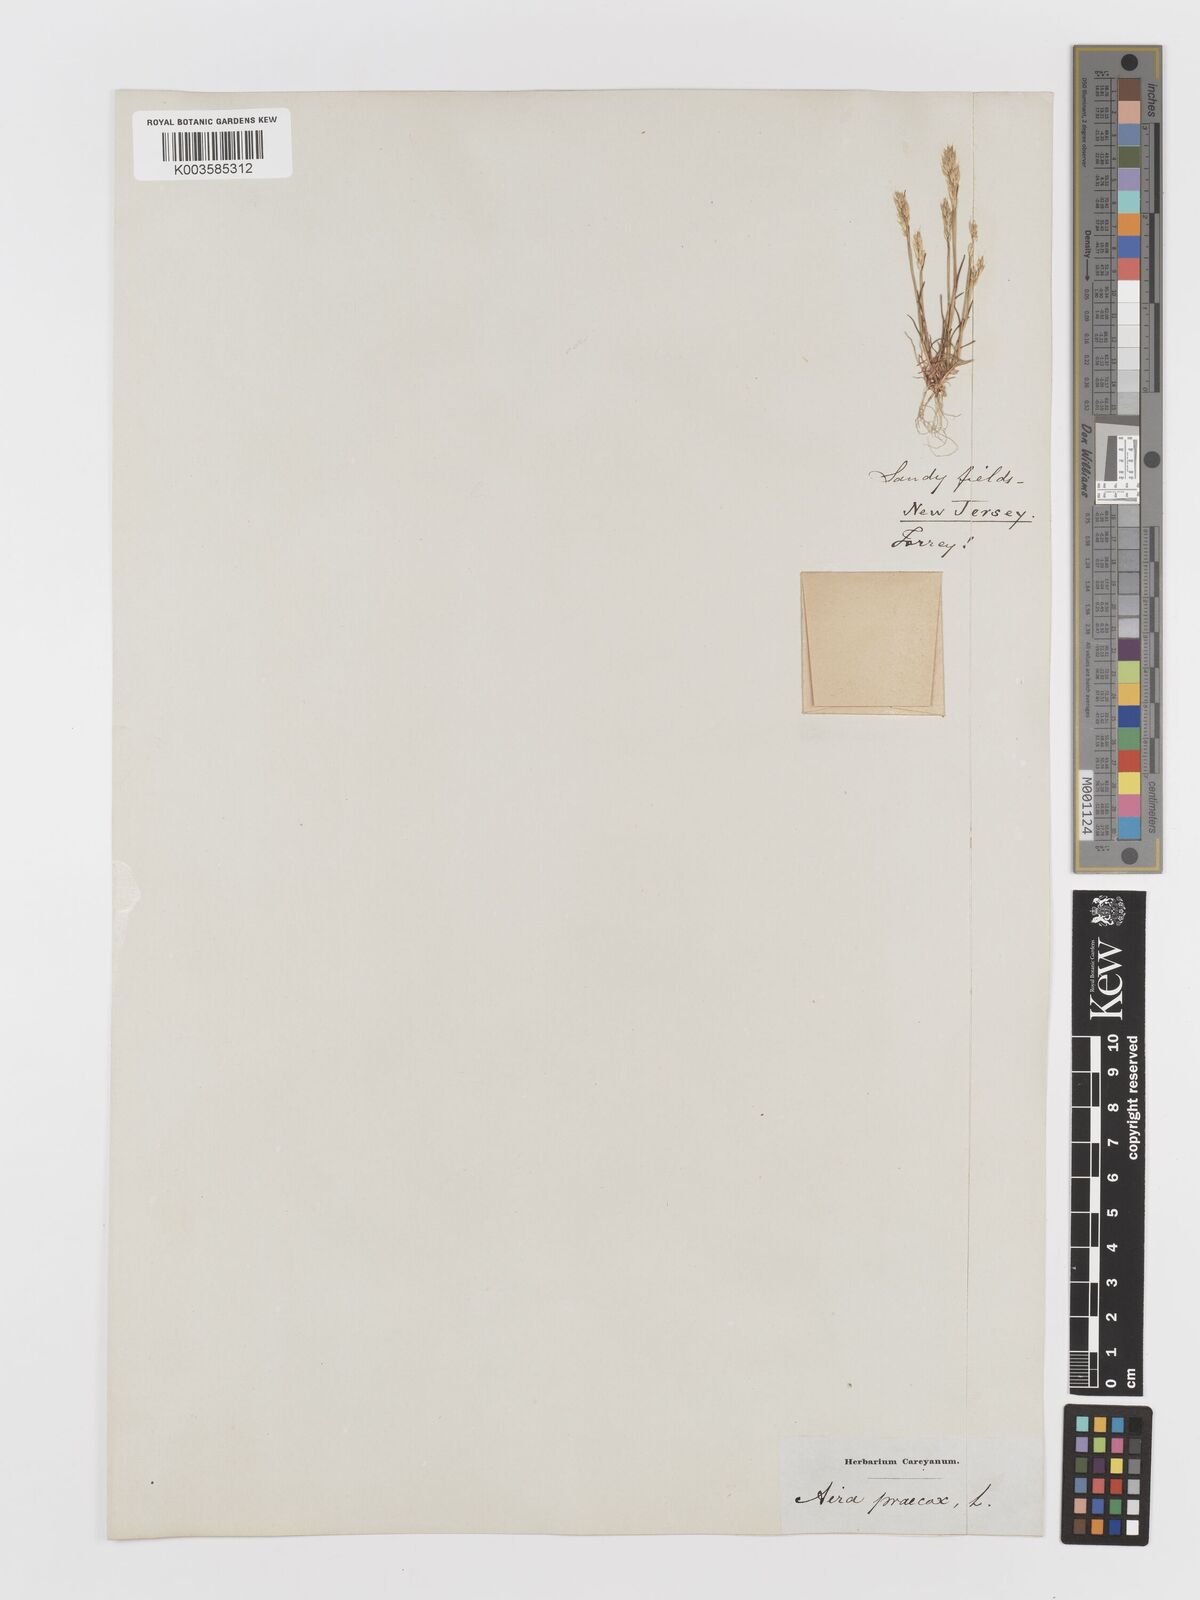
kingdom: Plantae
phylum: Tracheophyta
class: Liliopsida
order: Poales
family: Poaceae
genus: Aira
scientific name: Aira praecox
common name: Early hair-grass
